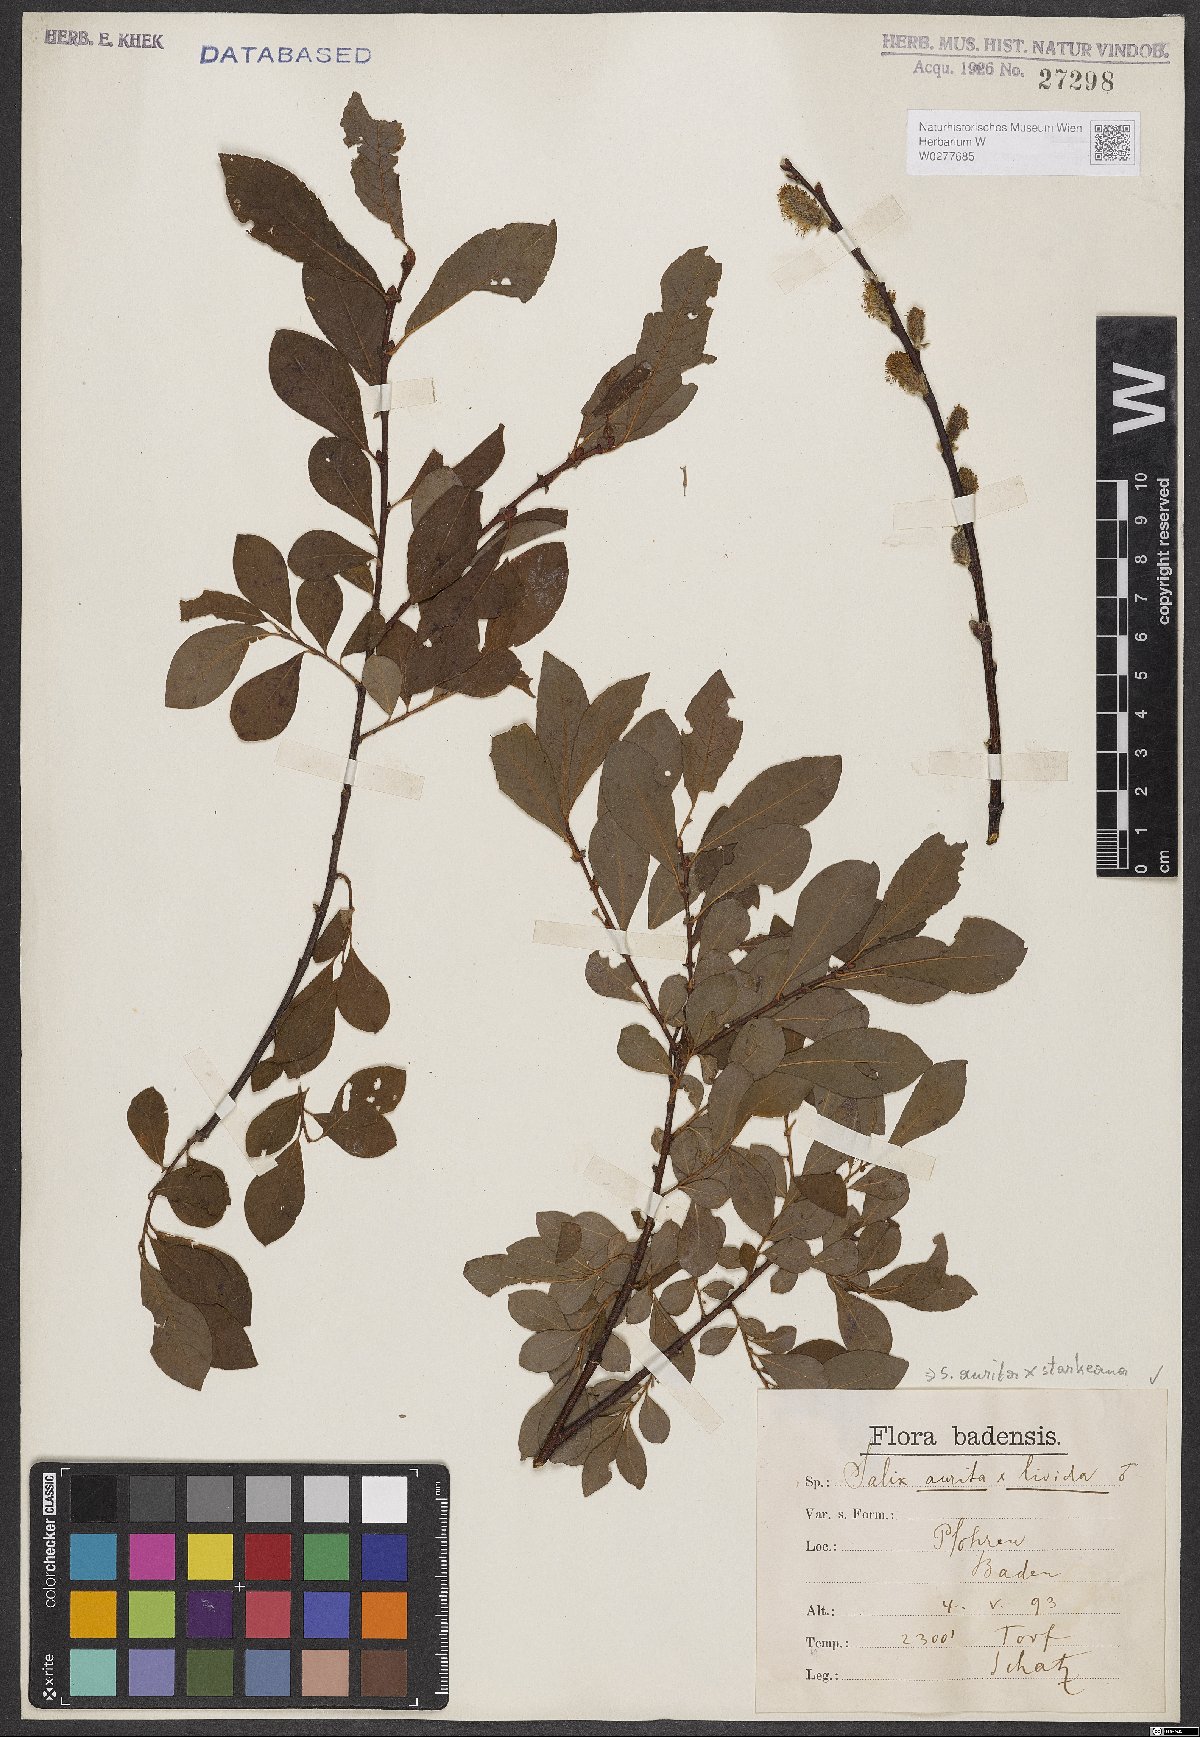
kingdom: Plantae
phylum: Tracheophyta
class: Magnoliopsida
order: Malpighiales
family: Salicaceae
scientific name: Salicaceae
